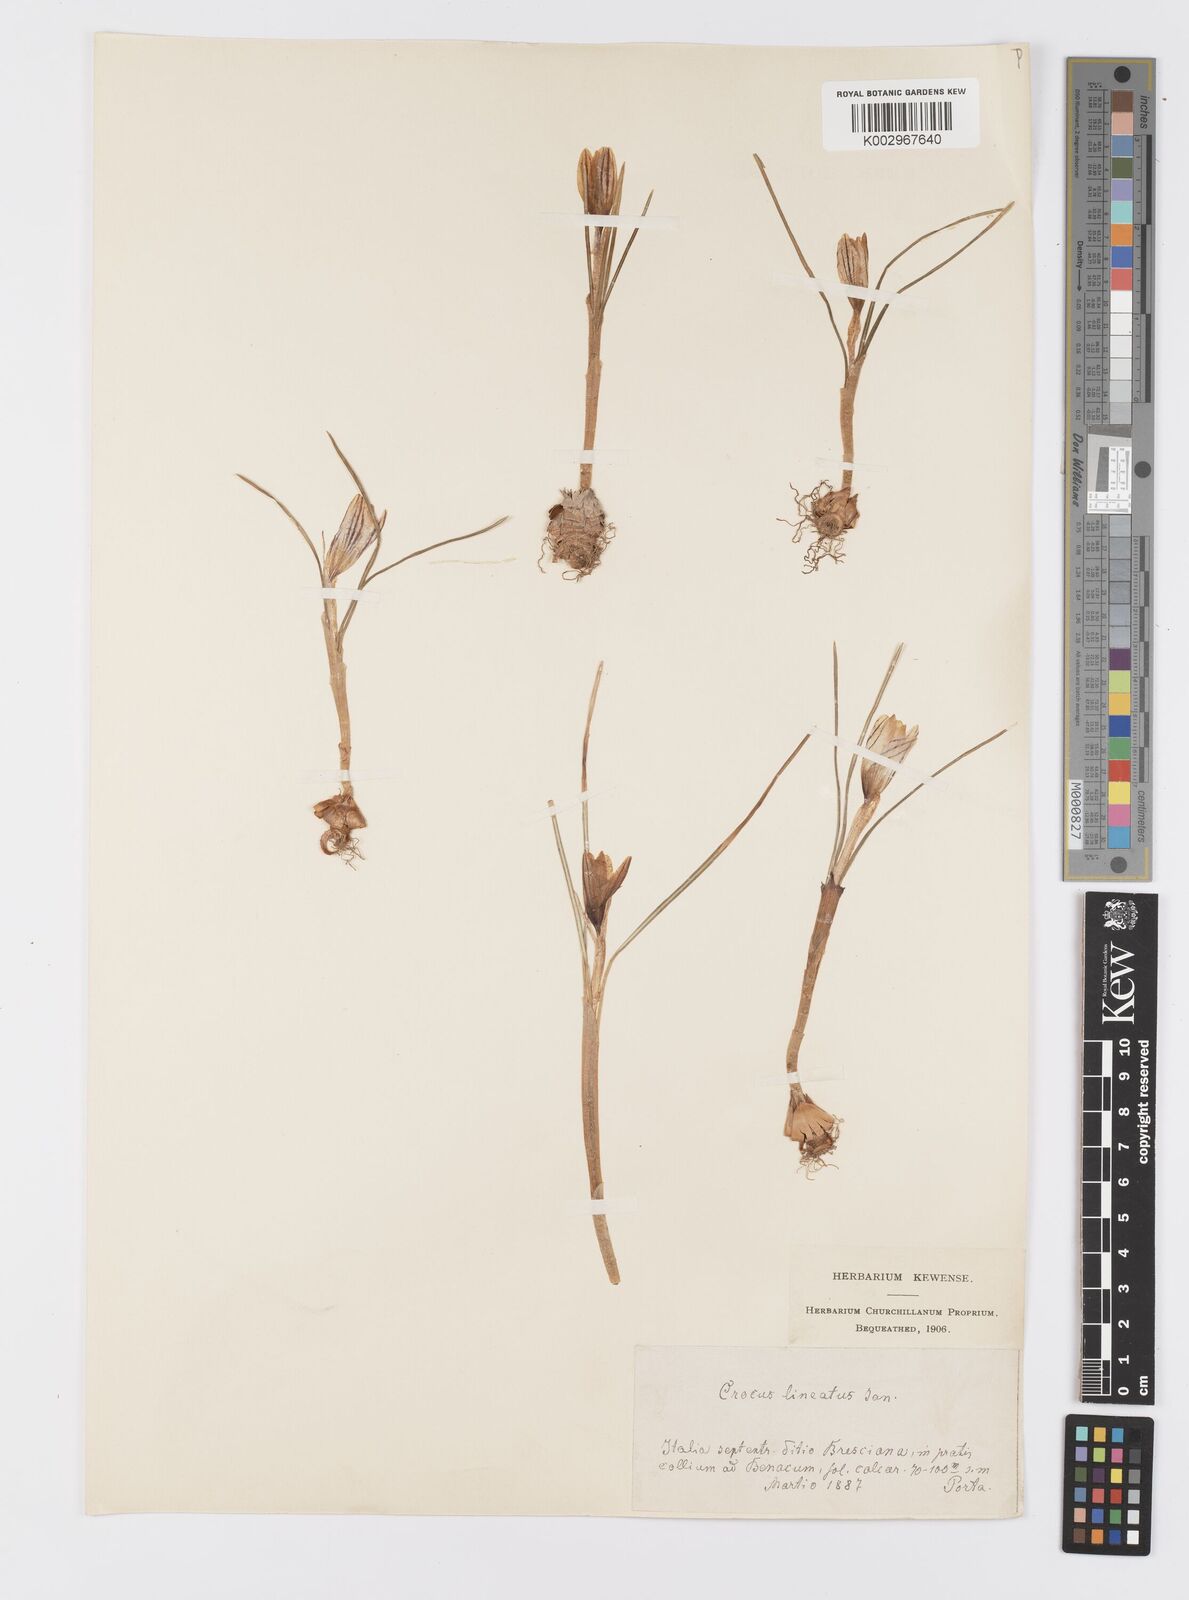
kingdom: Plantae
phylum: Tracheophyta
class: Liliopsida
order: Asparagales
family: Iridaceae
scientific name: Iridaceae
